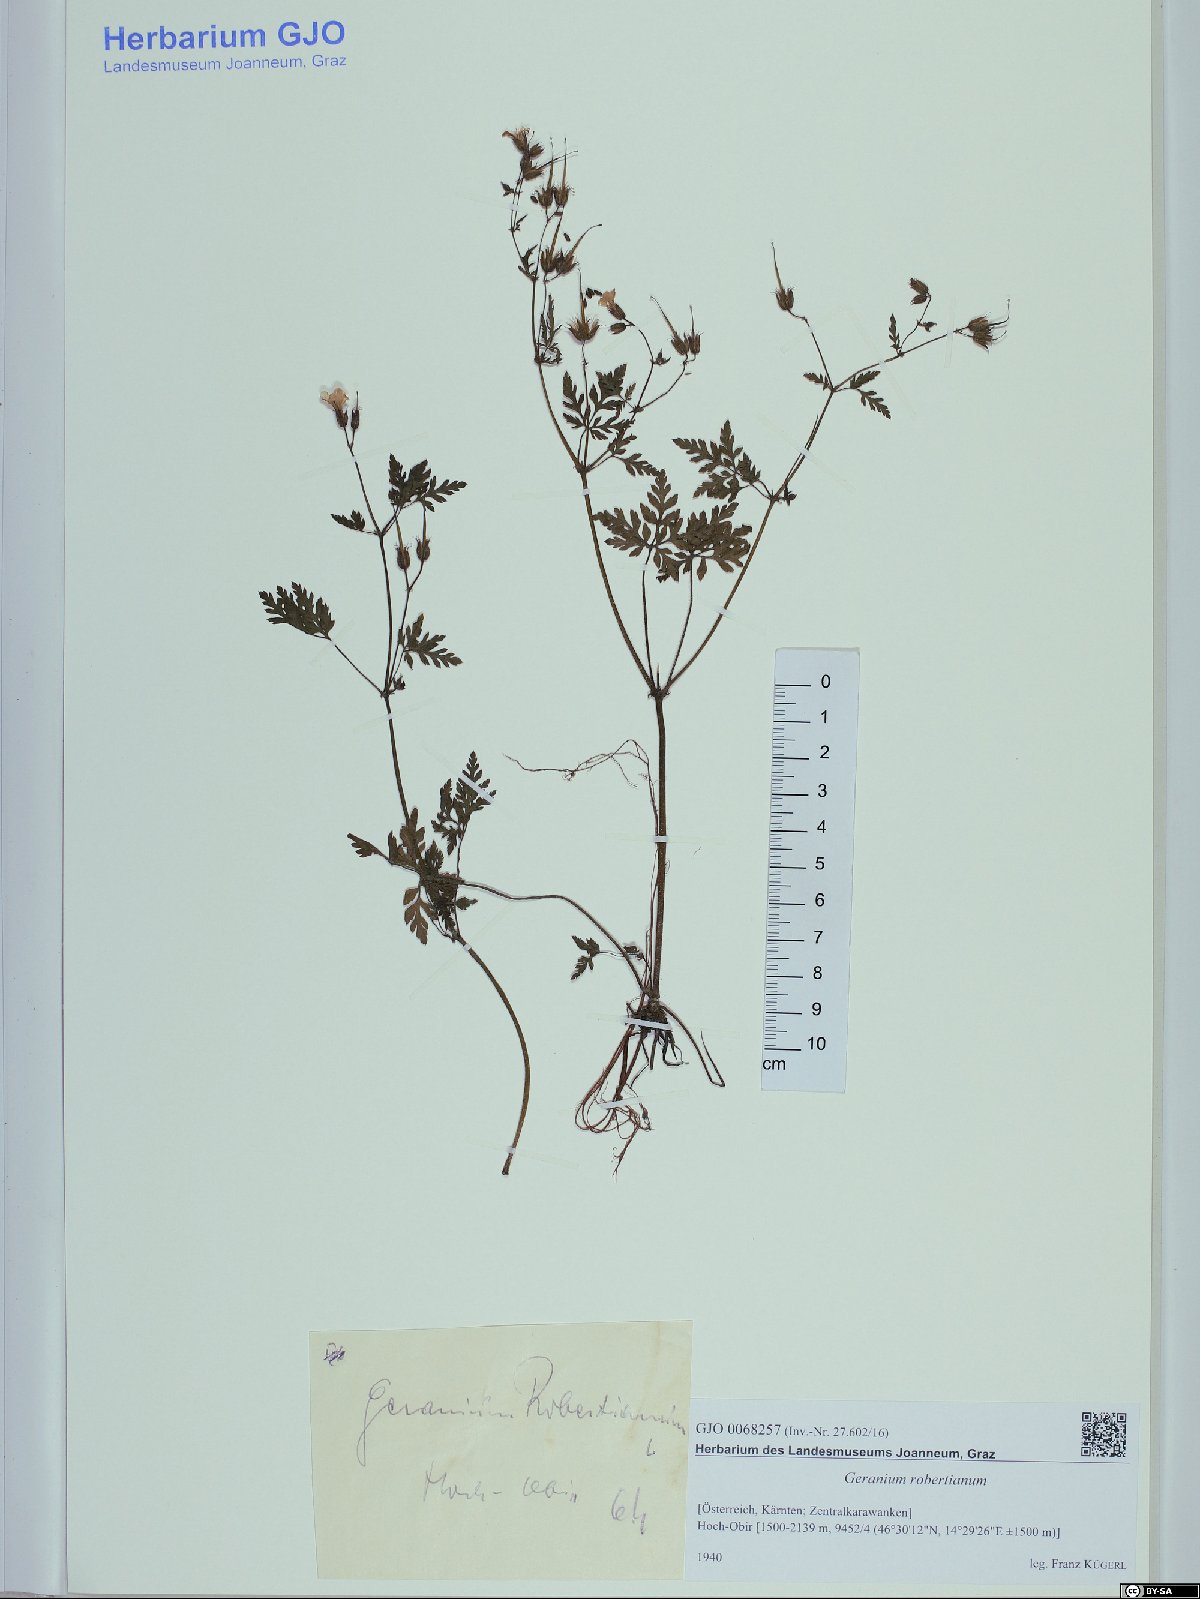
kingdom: Plantae
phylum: Tracheophyta
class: Magnoliopsida
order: Geraniales
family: Geraniaceae
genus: Geranium
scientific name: Geranium robertianum
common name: Herb-robert
